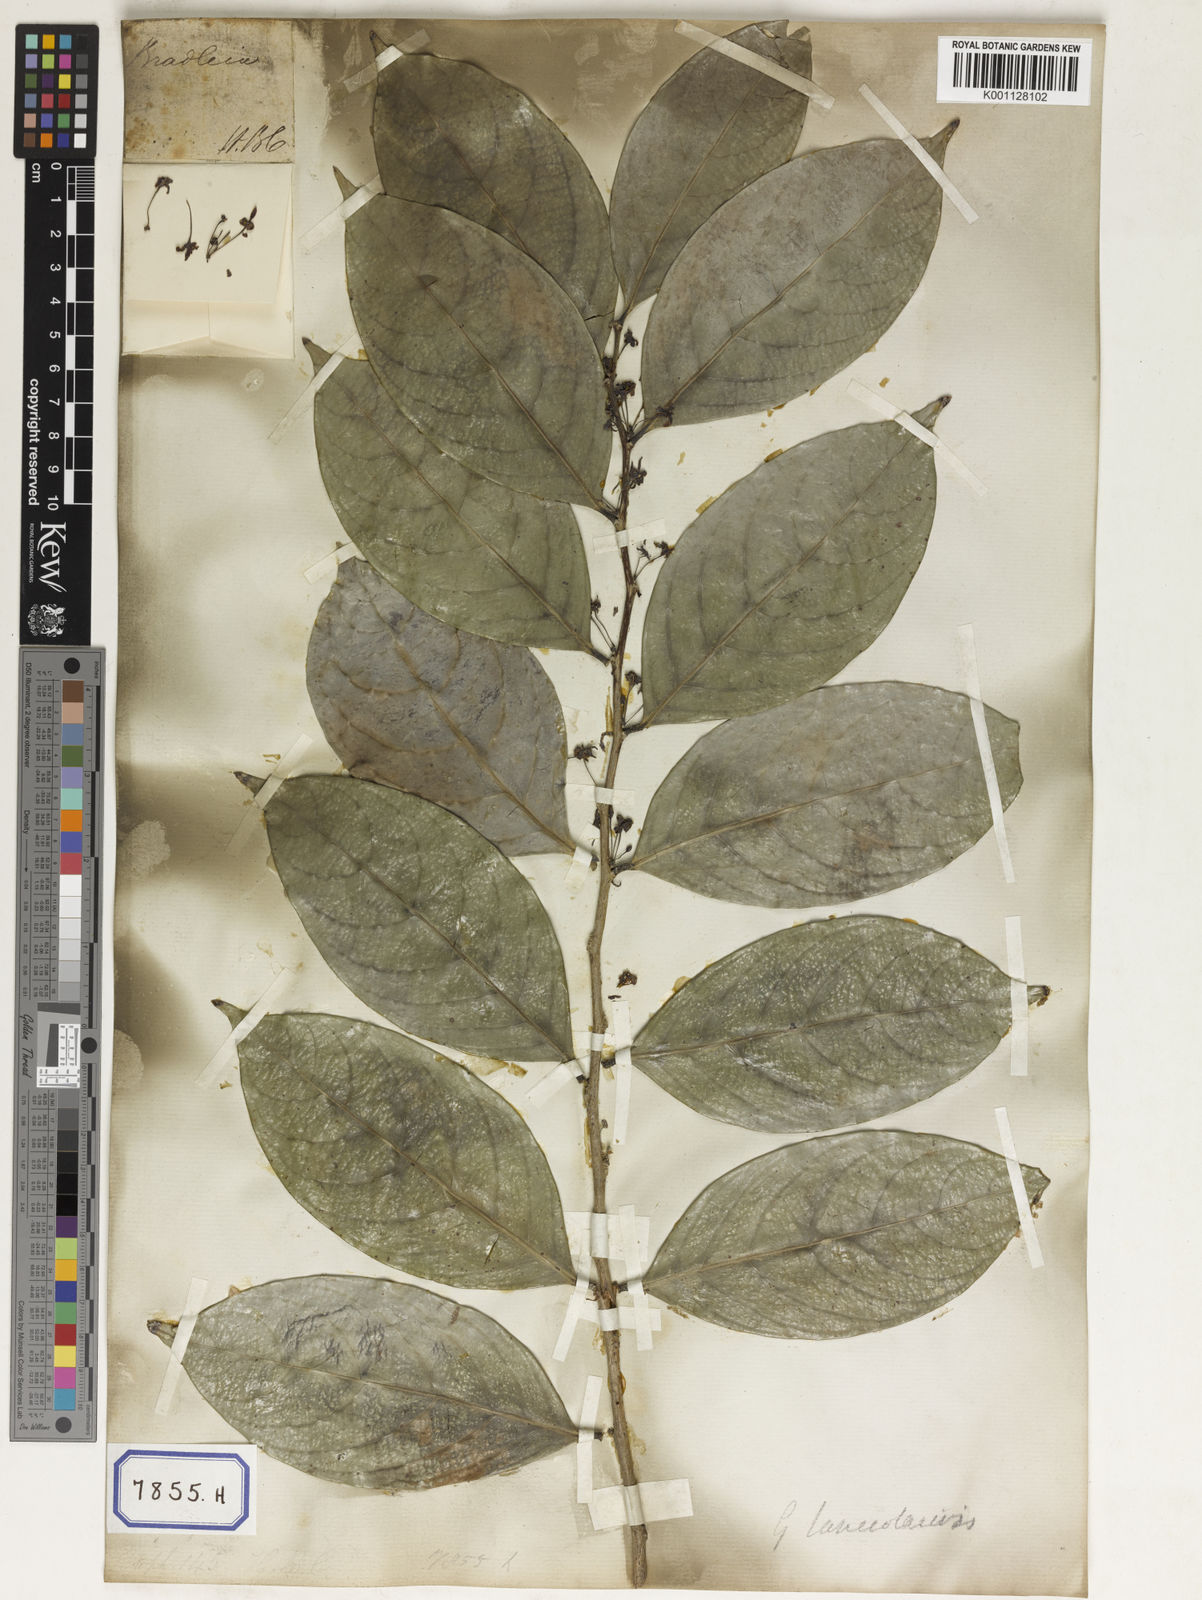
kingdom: Plantae
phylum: Tracheophyta
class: Magnoliopsida
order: Malpighiales
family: Euphorbiaceae
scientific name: Euphorbiaceae
